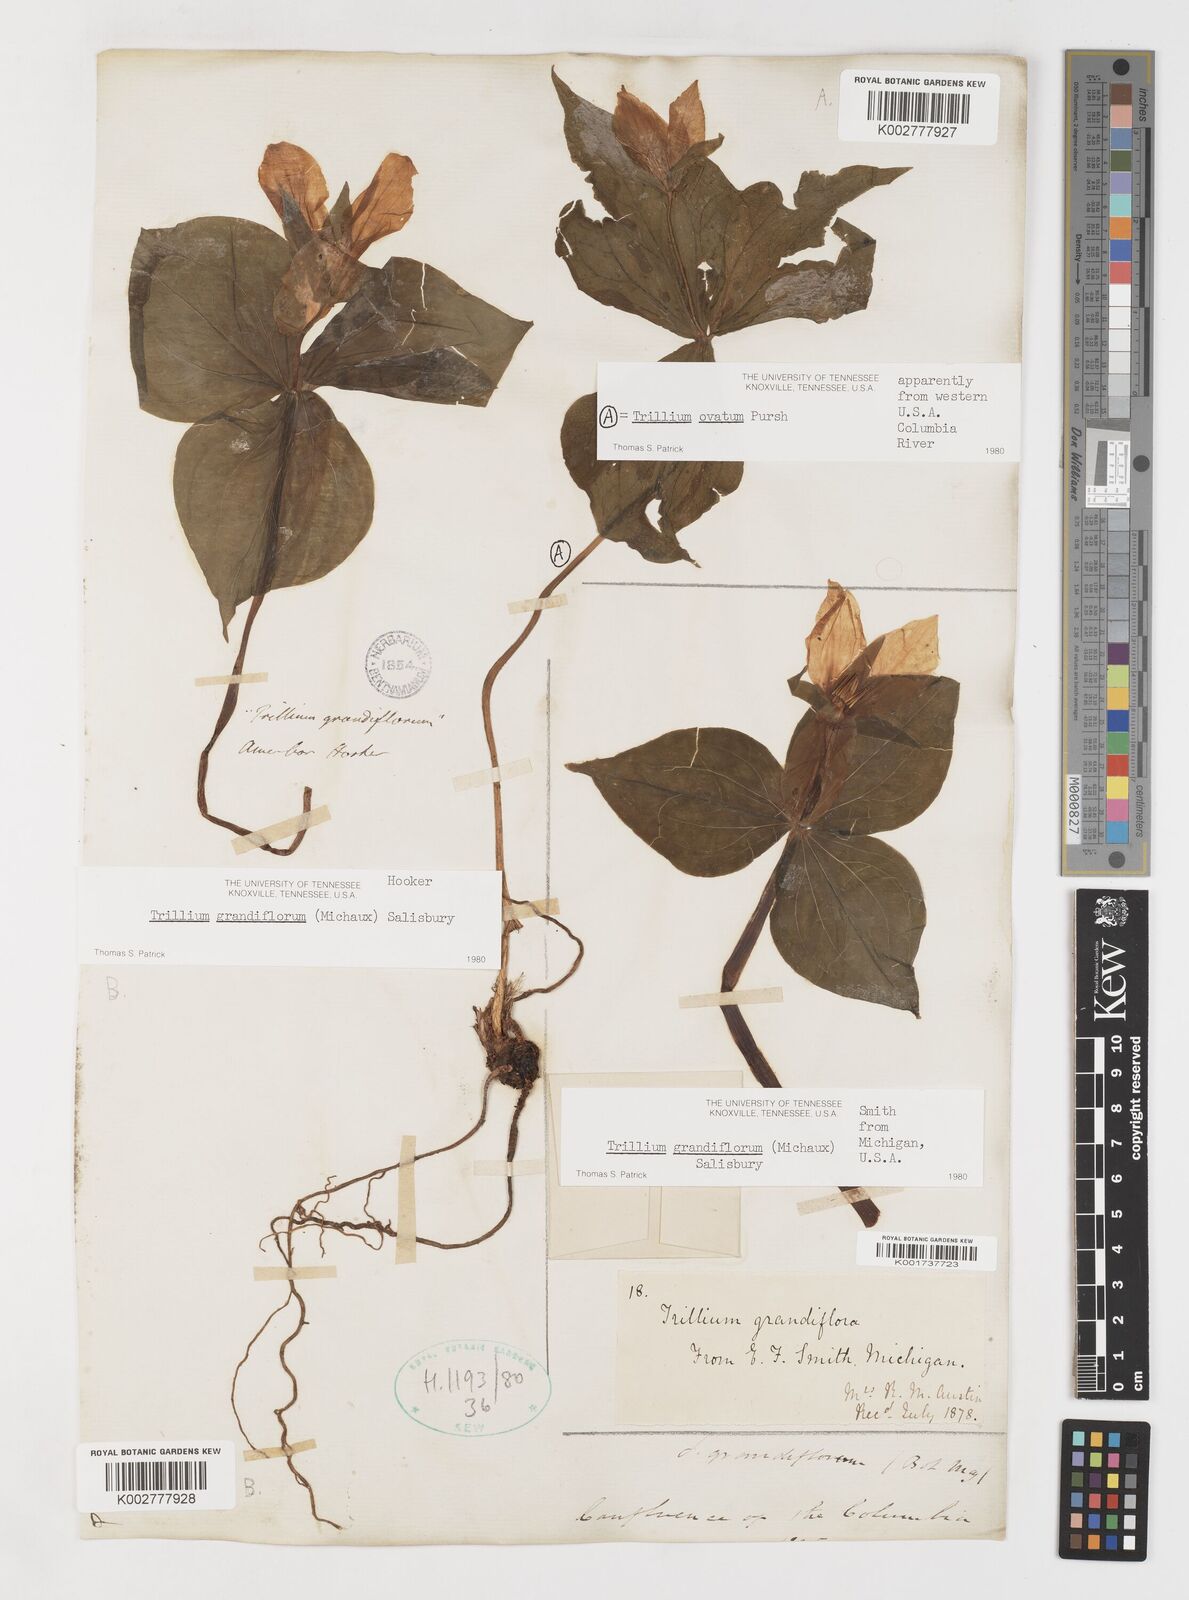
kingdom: Plantae
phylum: Tracheophyta
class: Liliopsida
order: Liliales
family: Melanthiaceae
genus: Trillium
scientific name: Trillium grandiflorum
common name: Great white trillium
